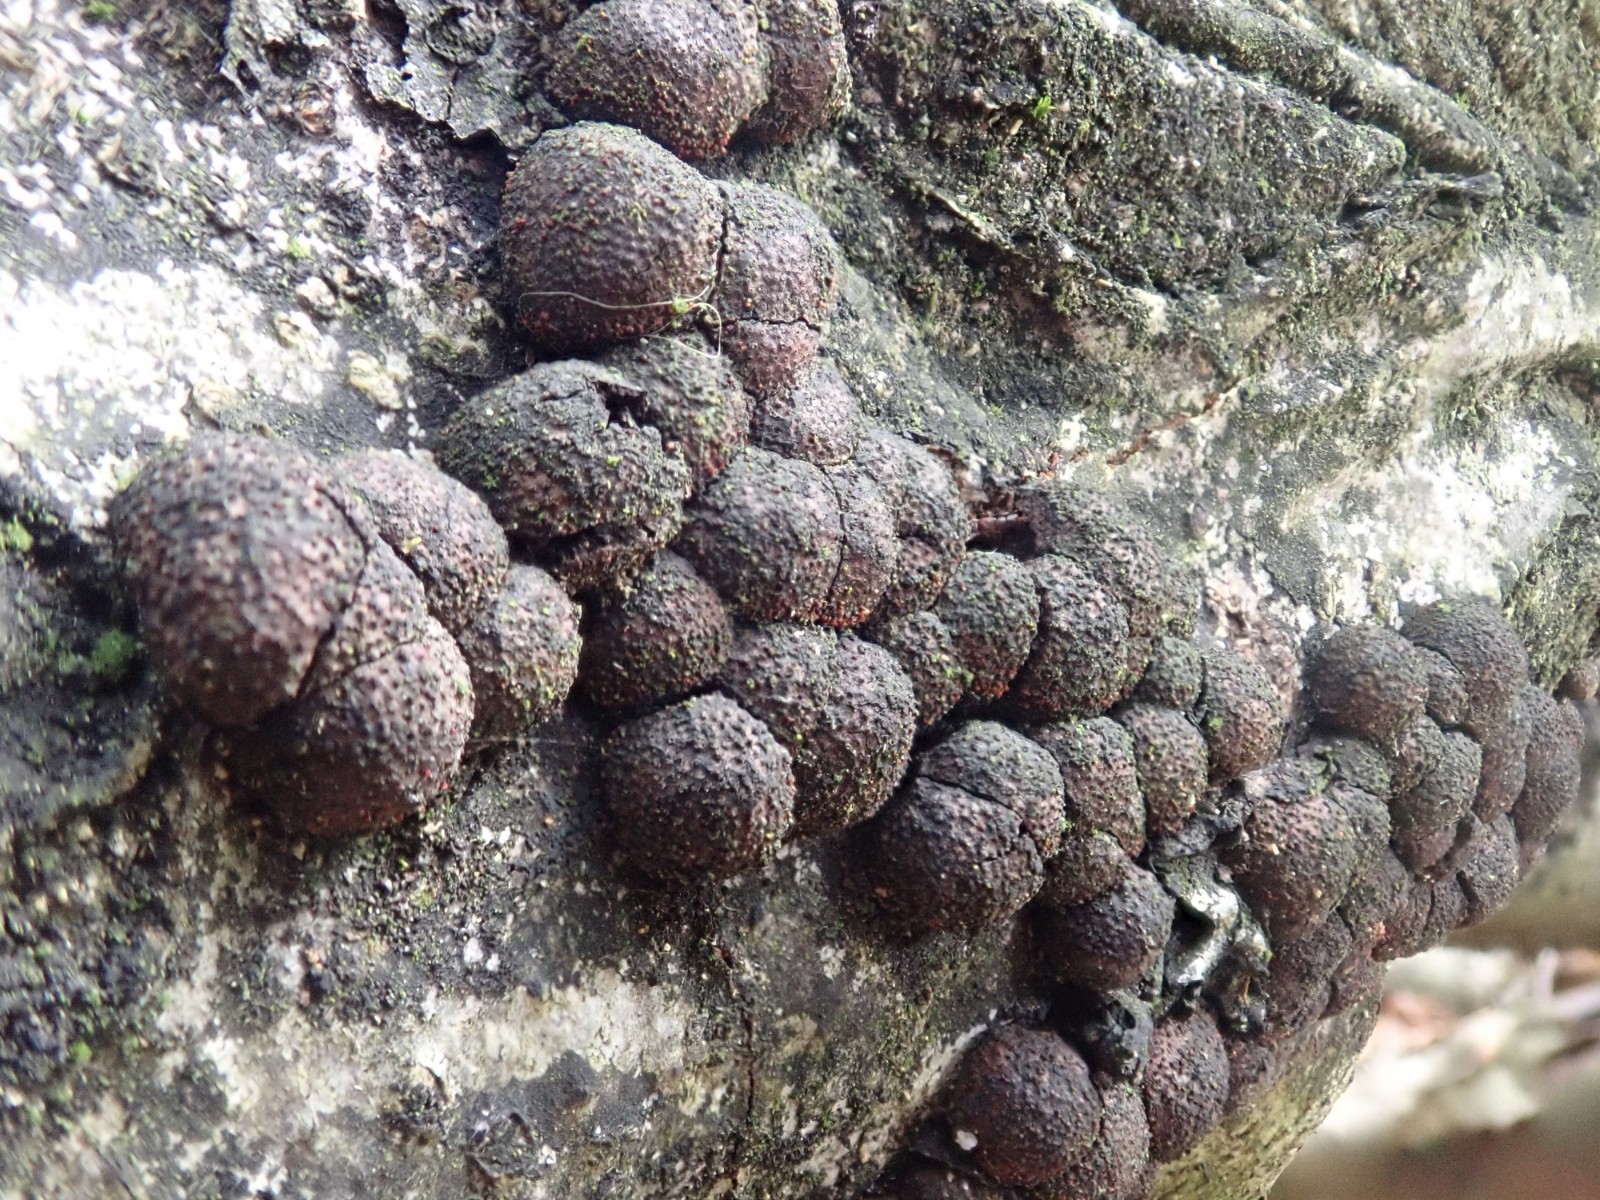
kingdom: Fungi
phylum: Ascomycota
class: Sordariomycetes
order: Xylariales
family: Hypoxylaceae
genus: Hypoxylon
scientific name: Hypoxylon fragiforme
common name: kuljordbær
